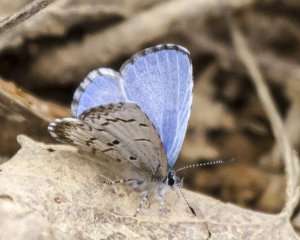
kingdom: Animalia
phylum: Arthropoda
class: Insecta
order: Lepidoptera
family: Lycaenidae
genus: Celastrina
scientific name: Celastrina lucia
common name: Northern Spring Azure
